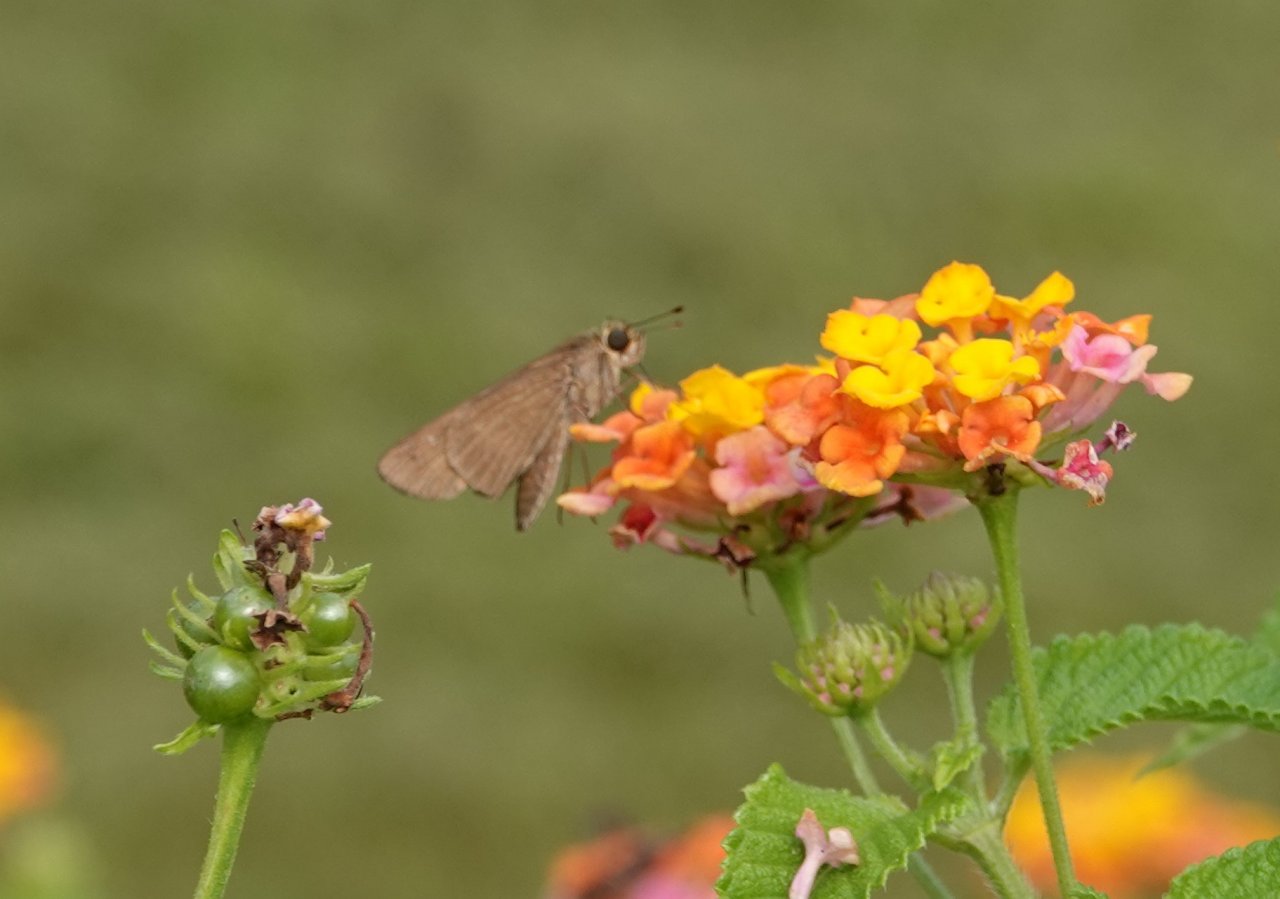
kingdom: Animalia
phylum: Arthropoda
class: Insecta
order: Lepidoptera
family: Hesperiidae
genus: Panoquina
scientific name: Panoquina ocola
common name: Ocola Skipper
